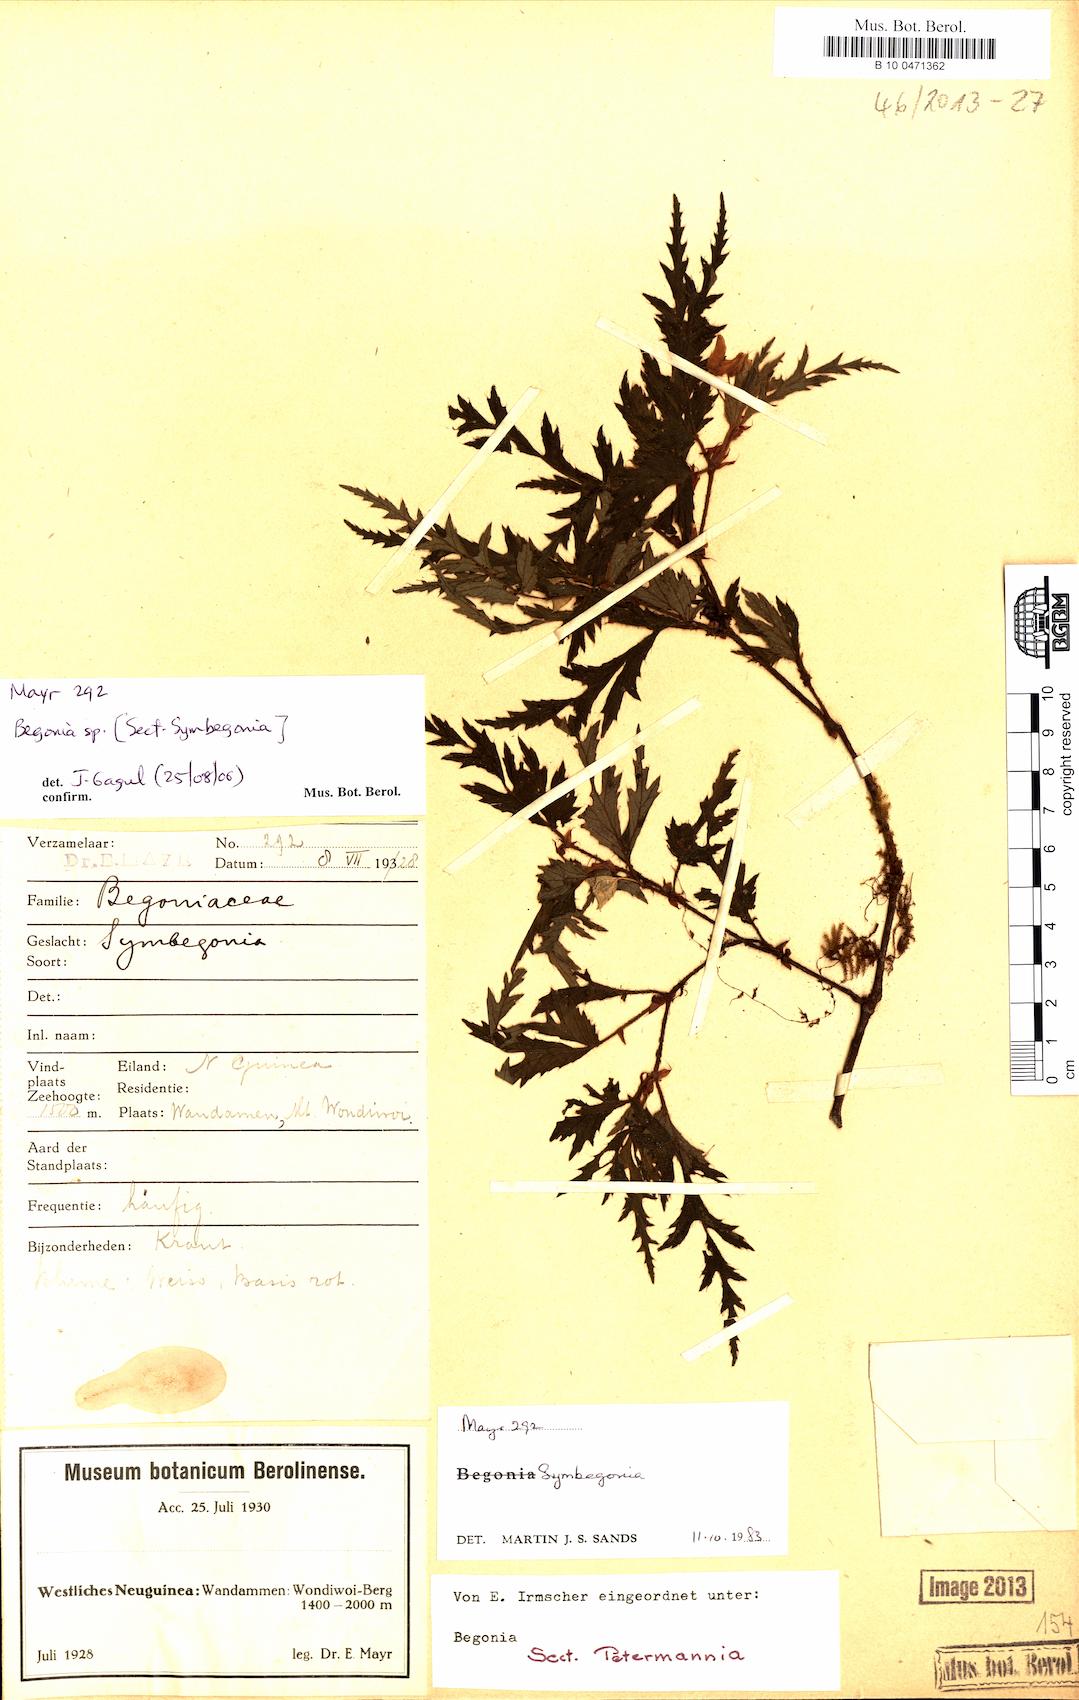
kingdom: Plantae
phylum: Tracheophyta
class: Magnoliopsida
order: Cucurbitales
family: Begoniaceae
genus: Begonia
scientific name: Begonia
